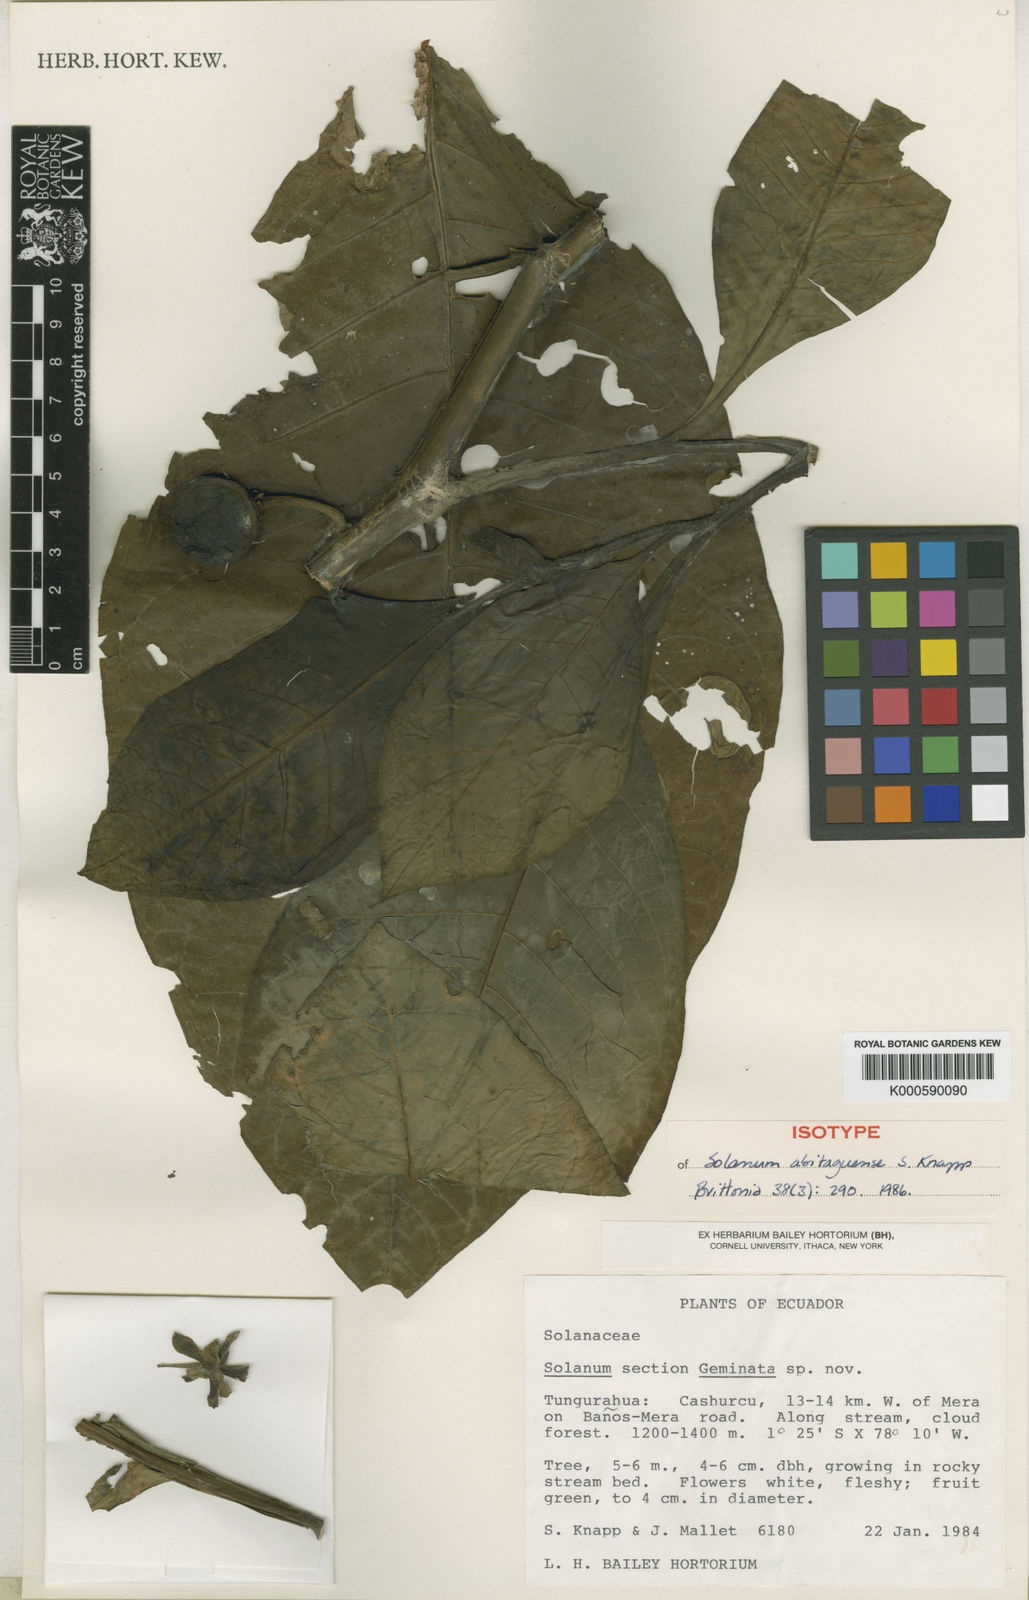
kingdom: Plantae
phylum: Tracheophyta
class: Magnoliopsida
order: Solanales
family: Solanaceae
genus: Solanum
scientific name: Solanum abitaguense
